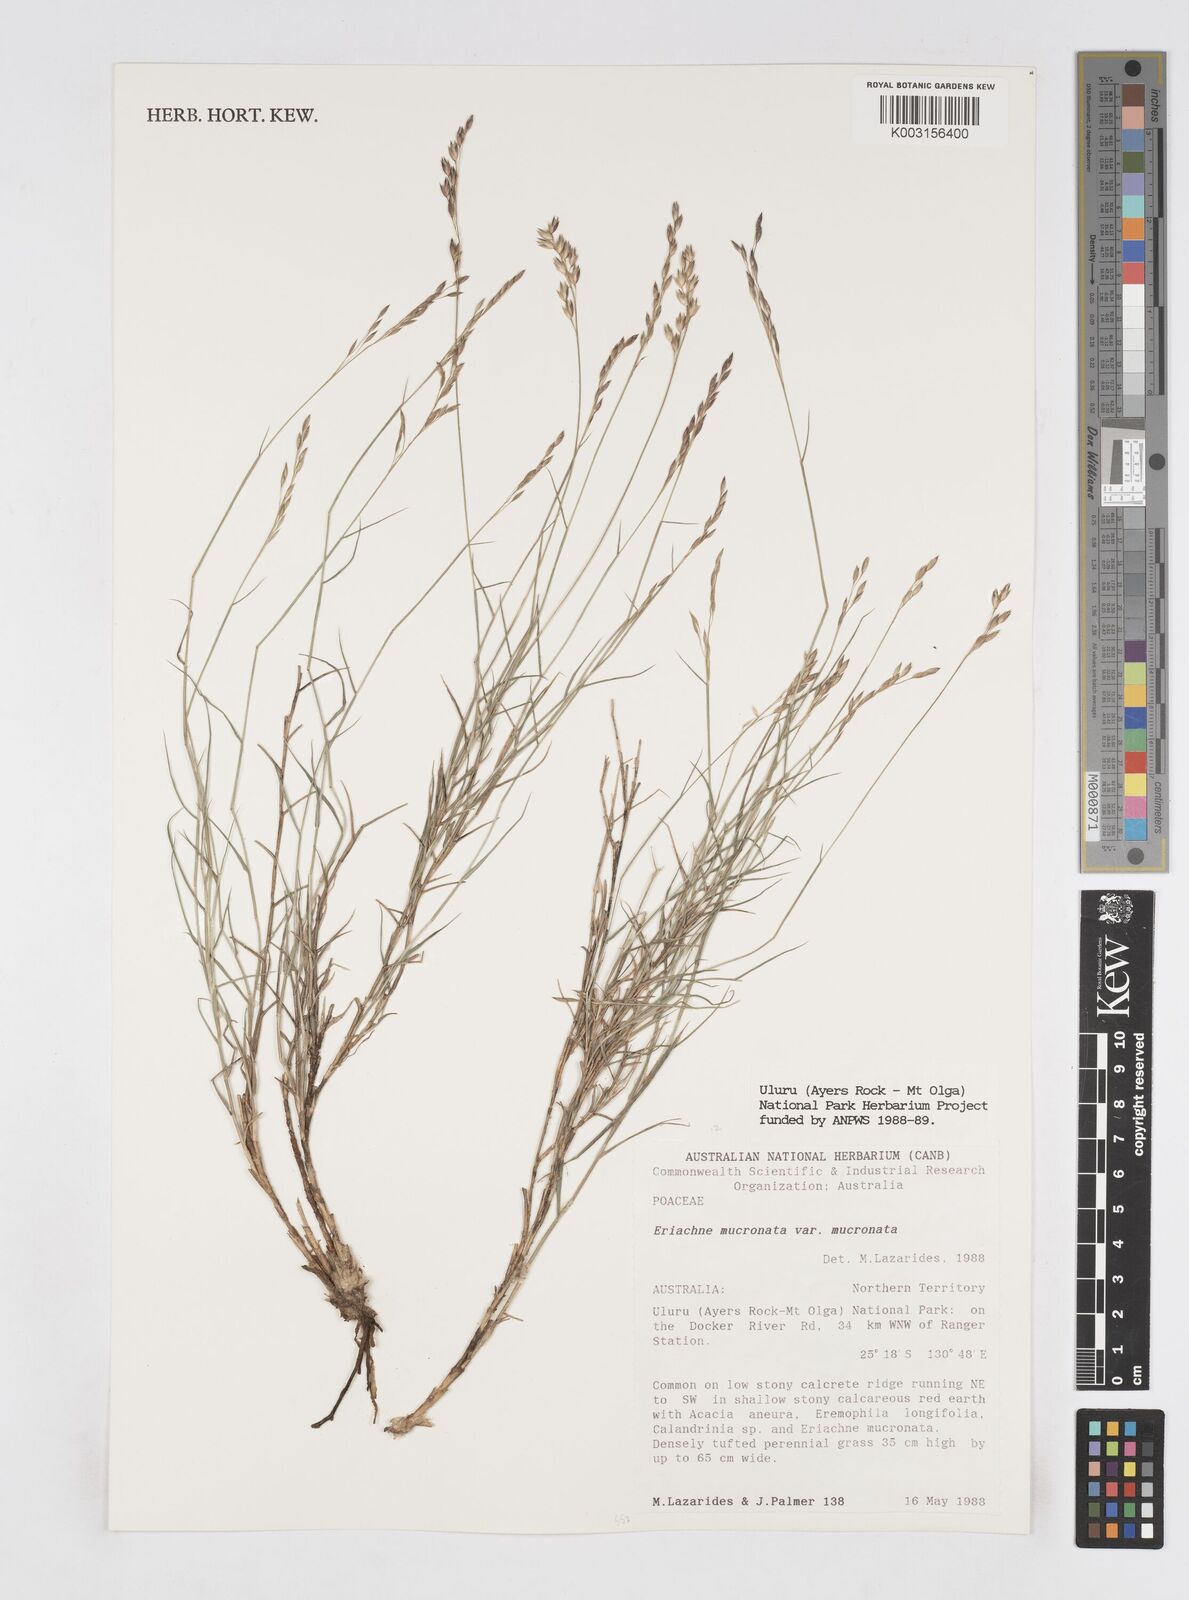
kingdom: Plantae
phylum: Tracheophyta
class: Liliopsida
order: Poales
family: Poaceae
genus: Eriachne
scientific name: Eriachne mucronata
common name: Mountain wanderrie grass
